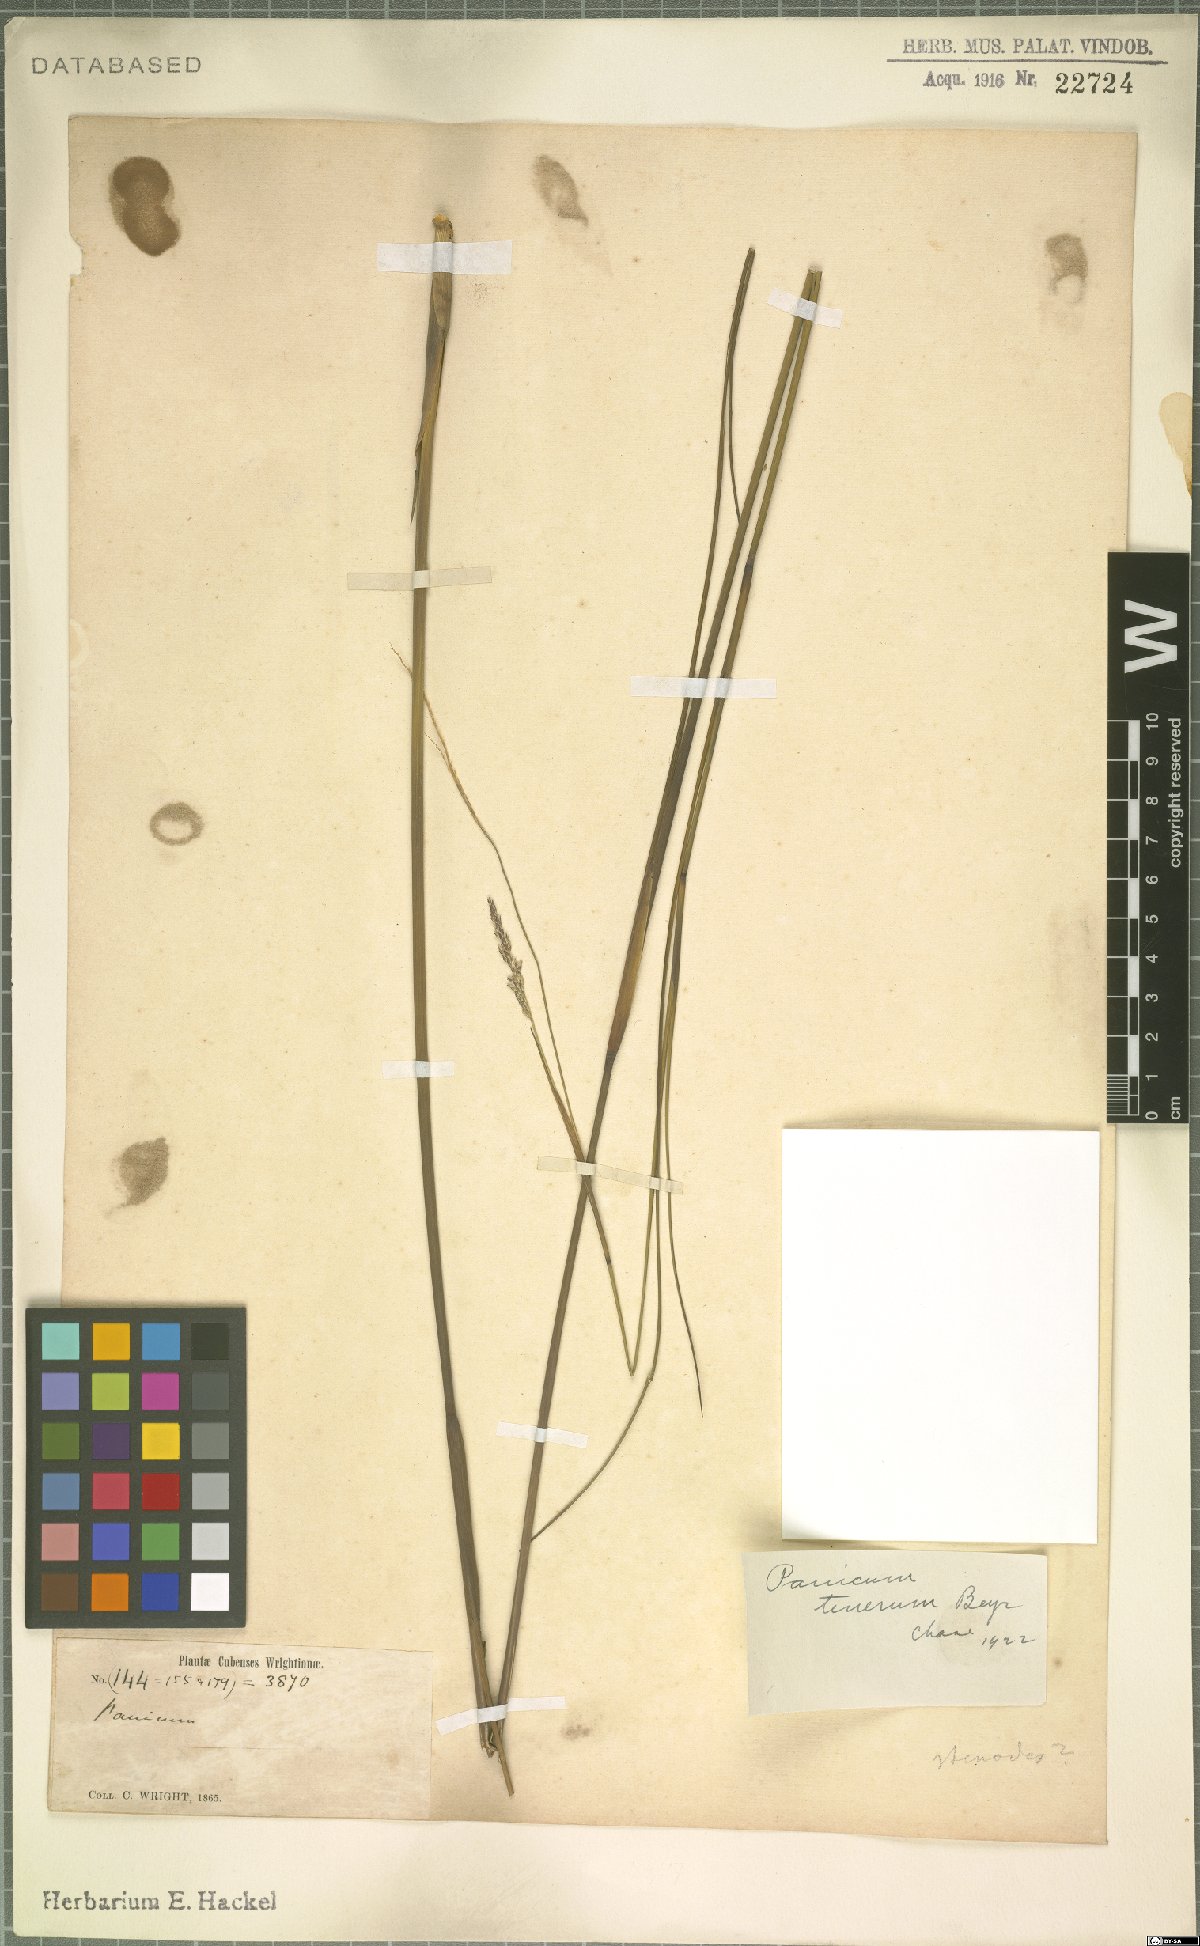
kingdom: Plantae
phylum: Tracheophyta
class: Liliopsida
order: Poales
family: Poaceae
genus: Coleataenia
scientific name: Coleataenia tenera
